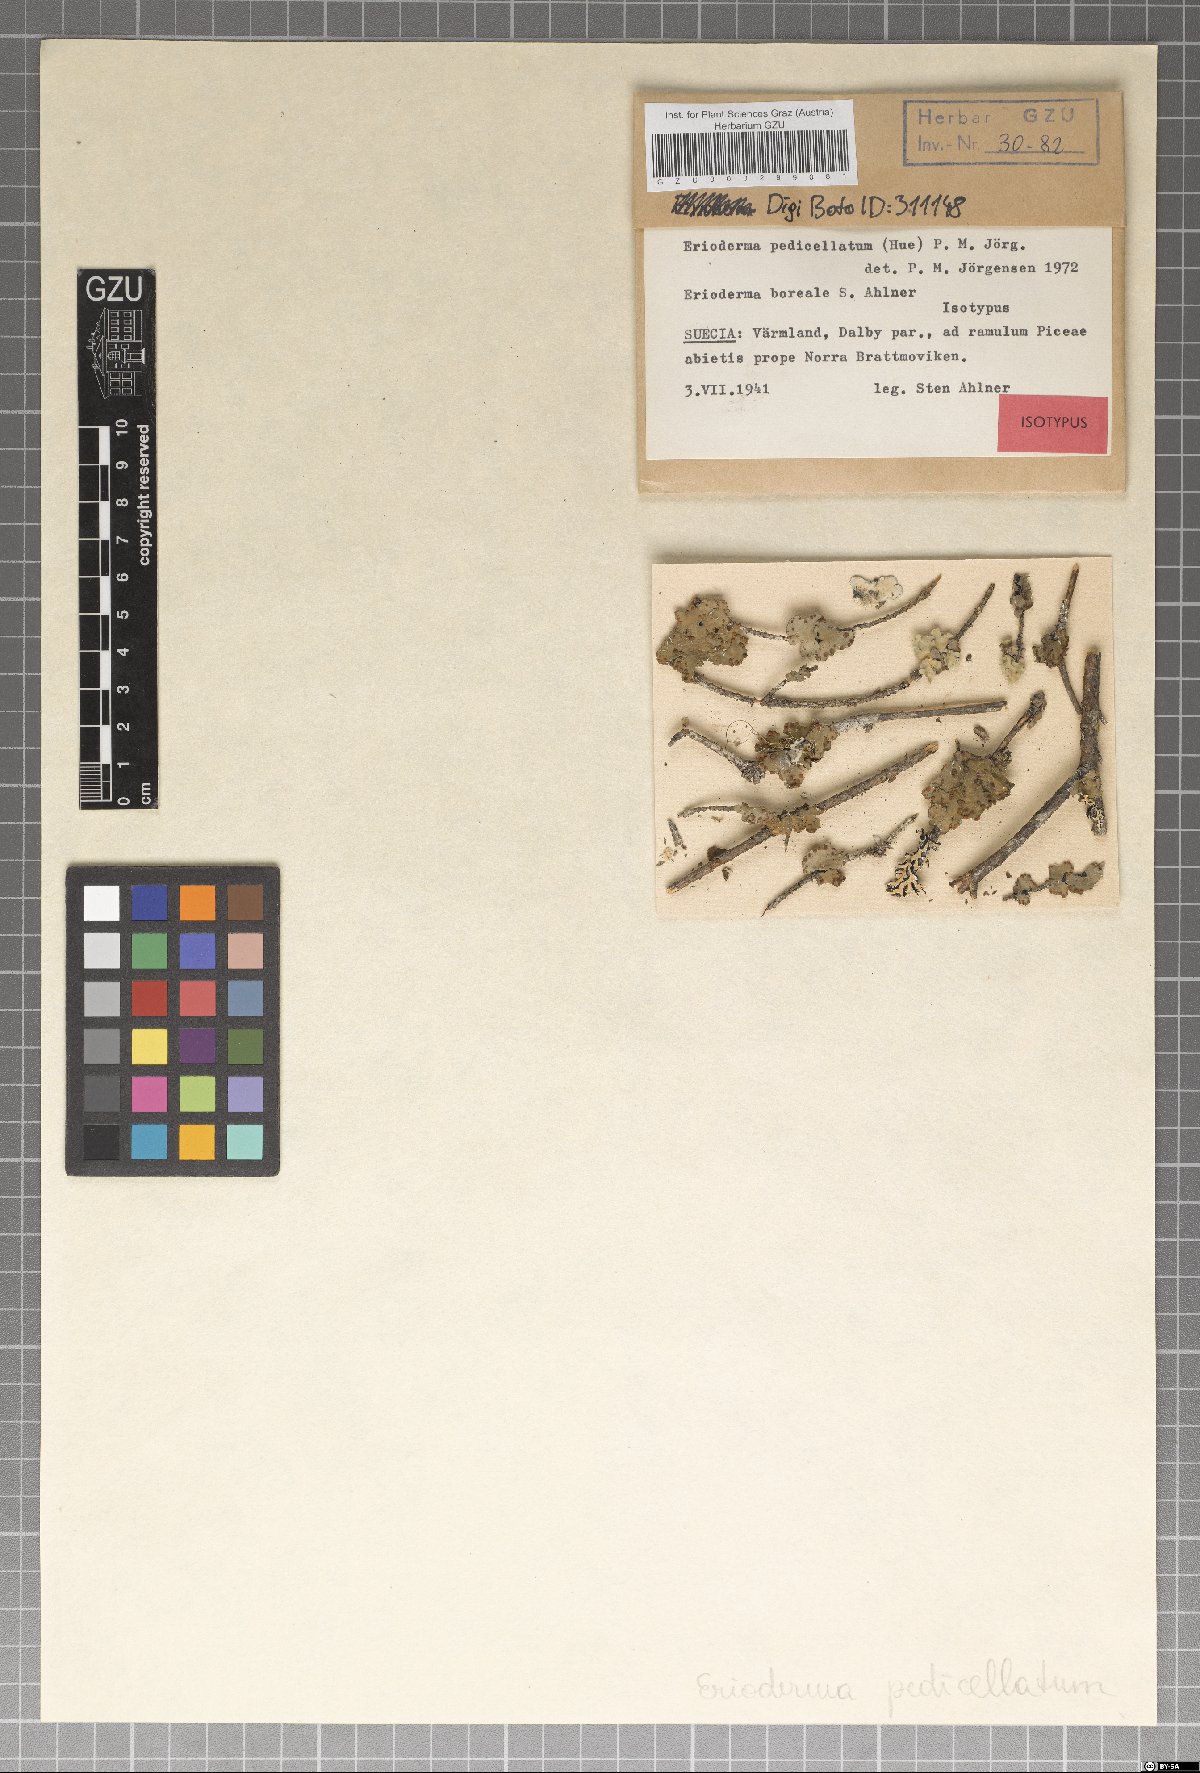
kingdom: Fungi
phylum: Ascomycota
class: Lecanoromycetes
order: Peltigerales
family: Pannariaceae
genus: Erioderma
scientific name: Erioderma pedicellatum
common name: Boreal felt lichen
